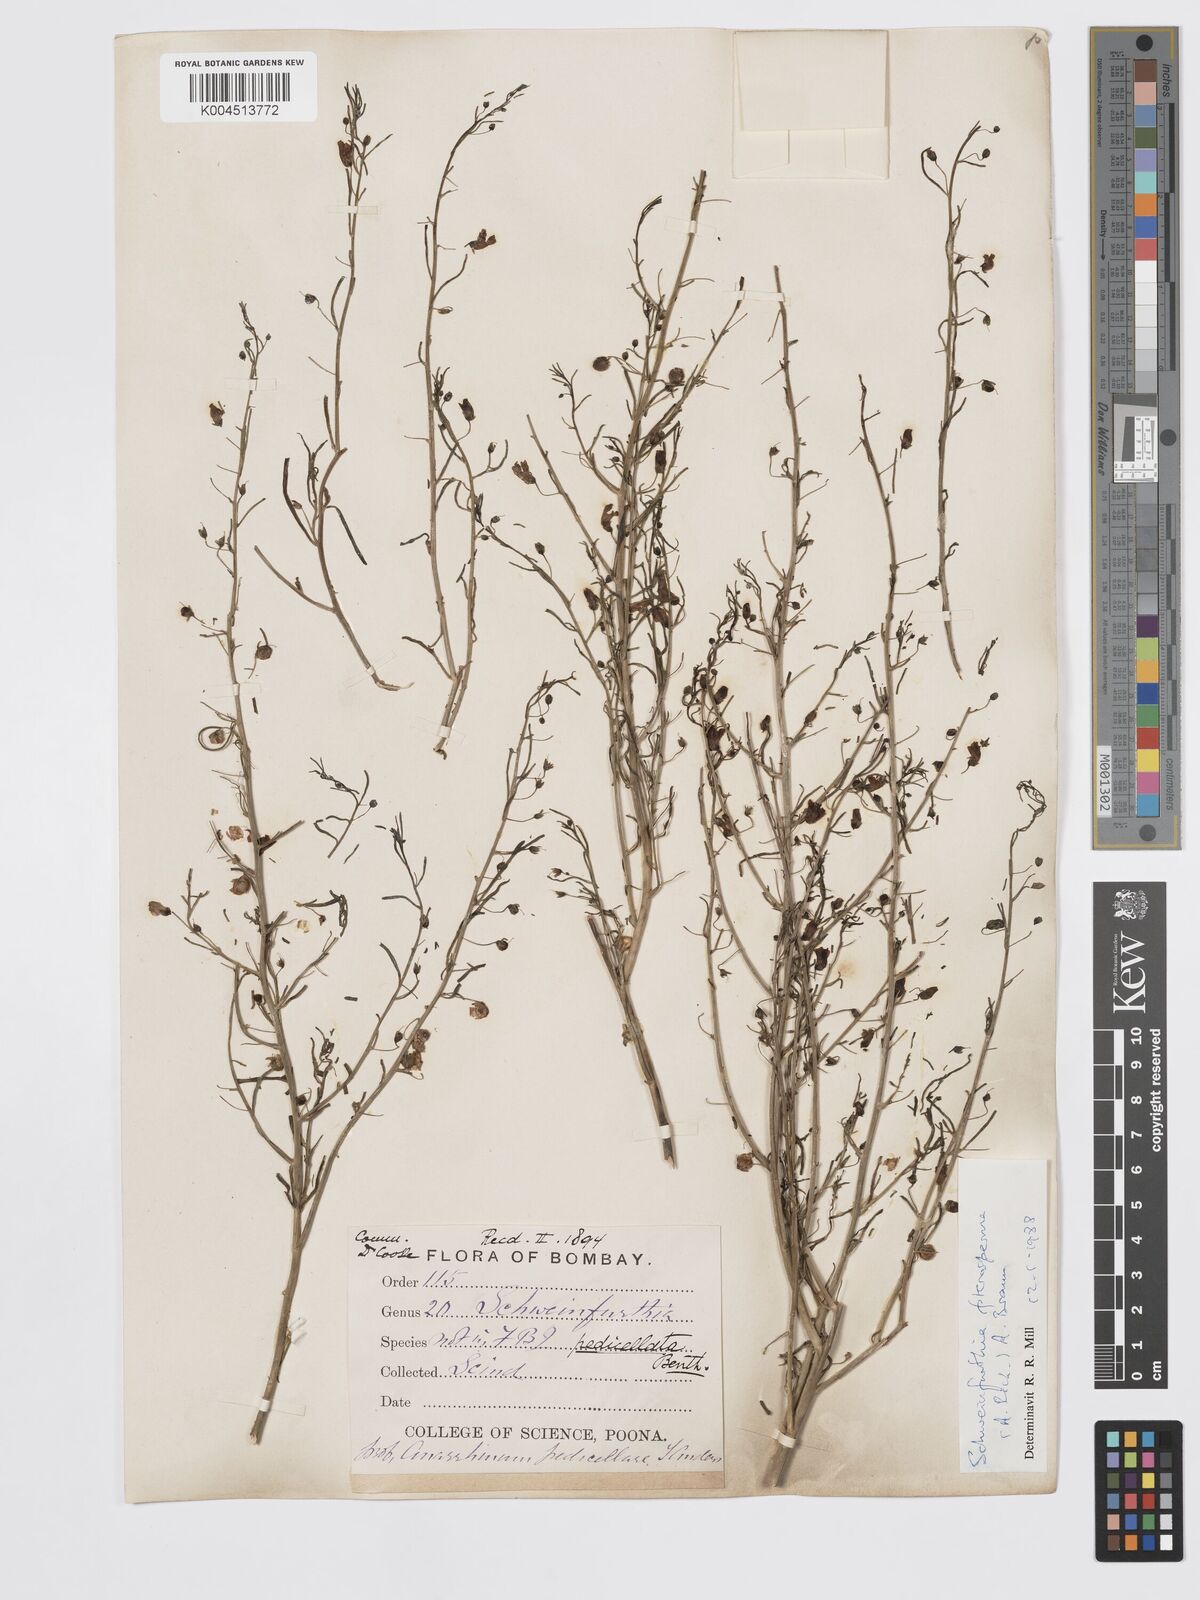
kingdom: Plantae
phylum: Tracheophyta
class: Magnoliopsida
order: Lamiales
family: Plantaginaceae
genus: Schweinfurthia
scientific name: Schweinfurthia pedicellata
